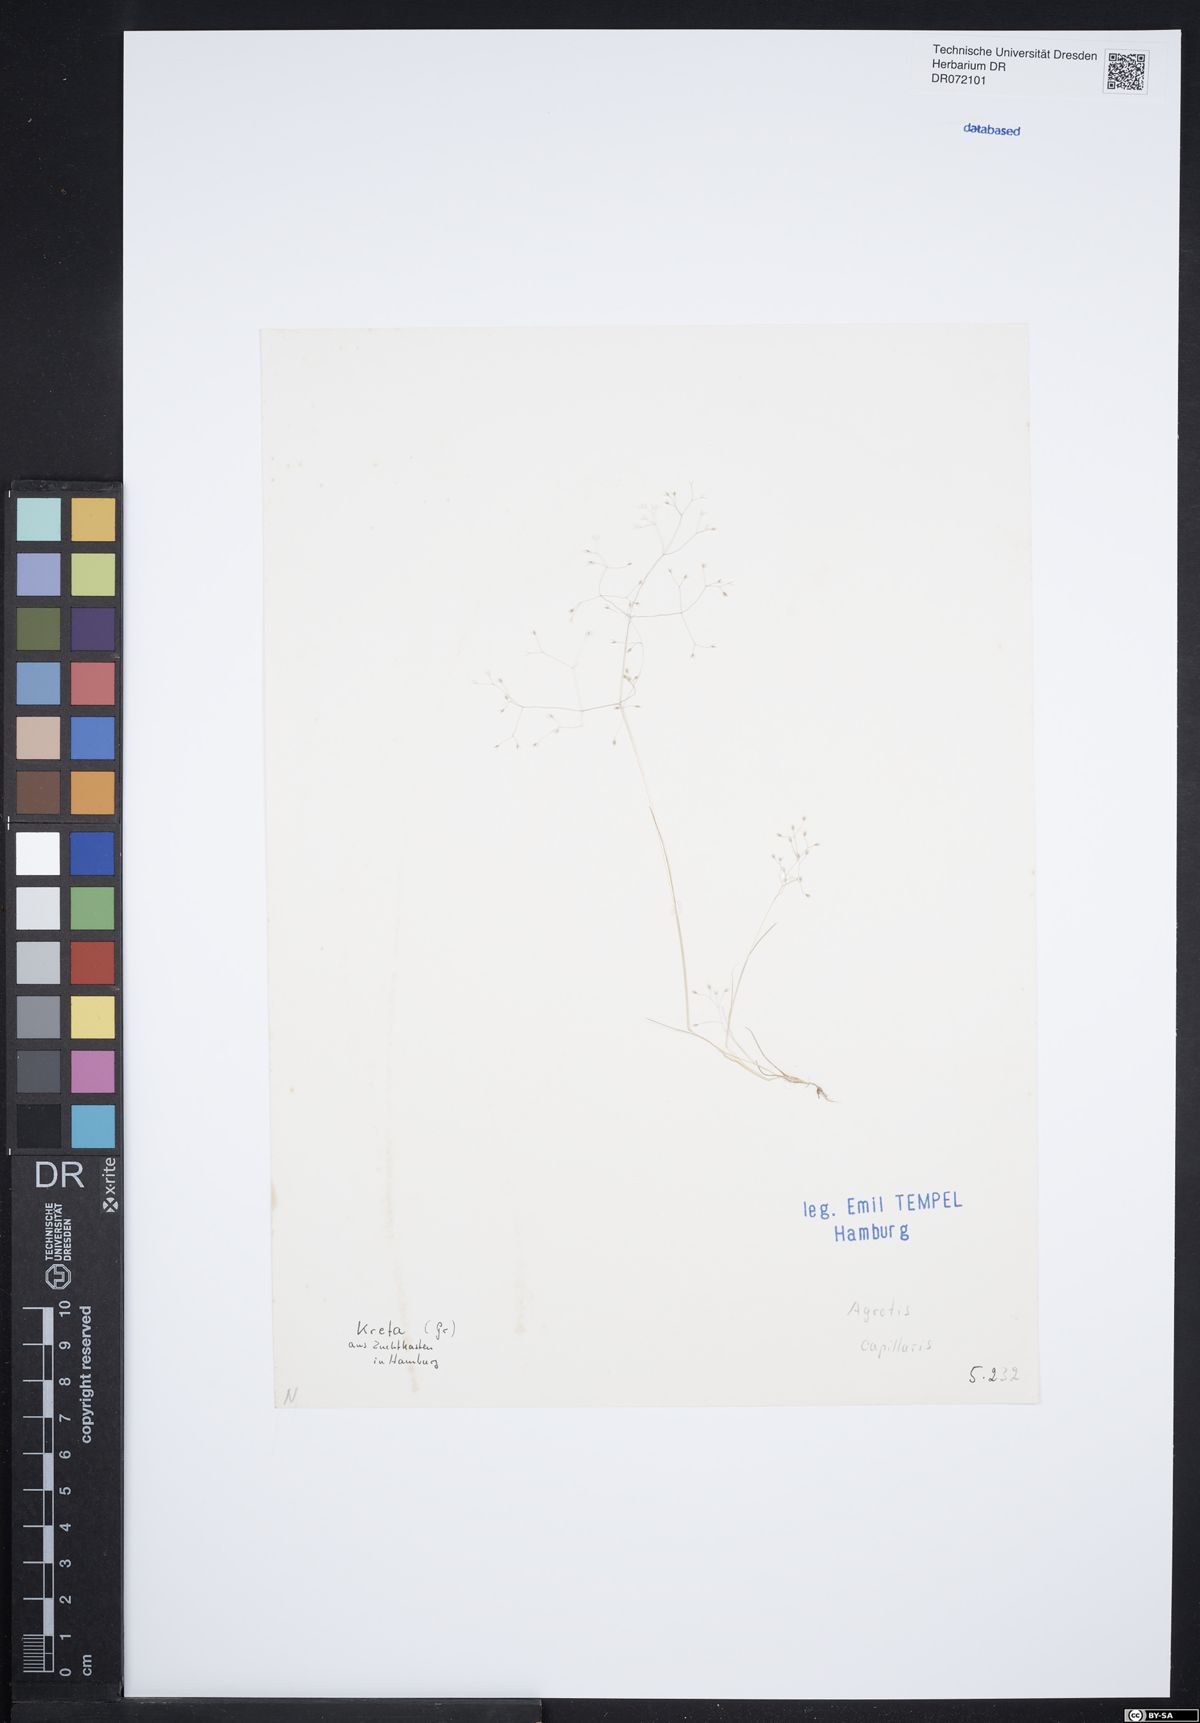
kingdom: Plantae
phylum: Tracheophyta
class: Liliopsida
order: Poales
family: Poaceae
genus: Agrostis
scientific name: Agrostis capillaris
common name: Colonial bentgrass
